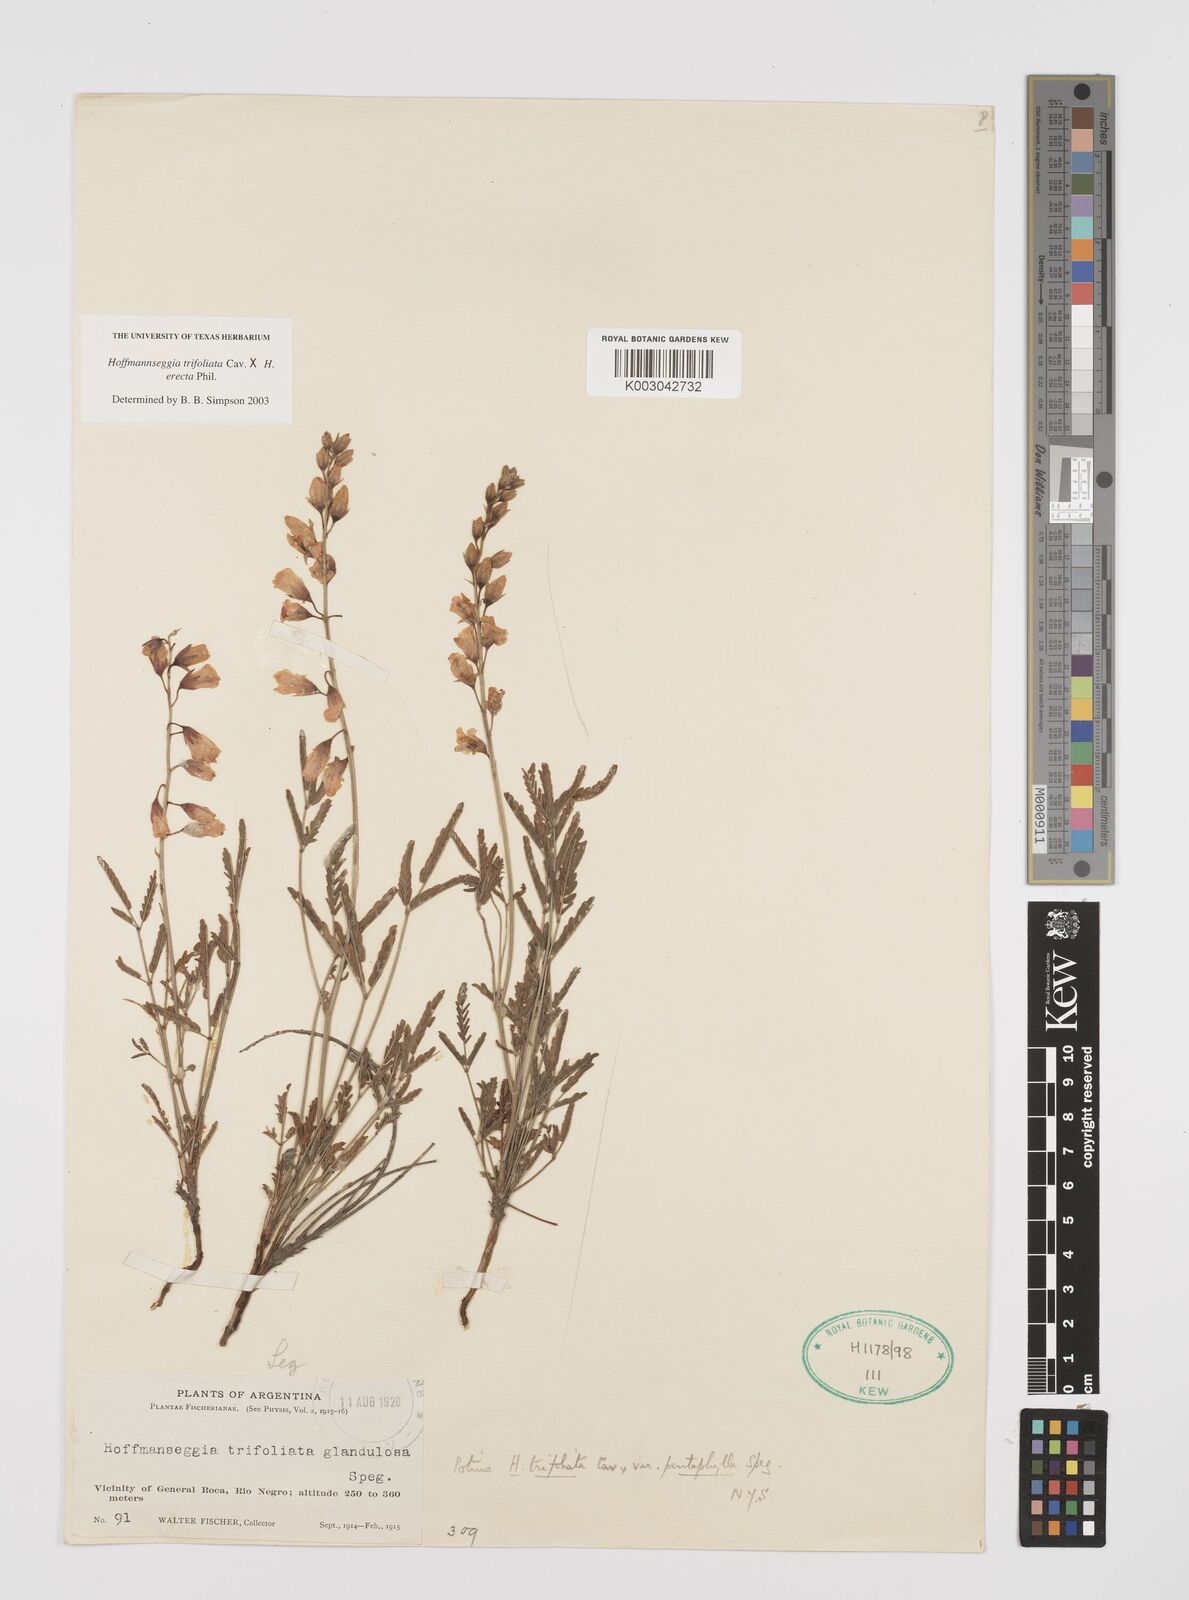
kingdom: Plantae
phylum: Tracheophyta
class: Magnoliopsida
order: Fabales
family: Fabaceae
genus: Hoffmannseggia
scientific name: Hoffmannseggia trifoliata
